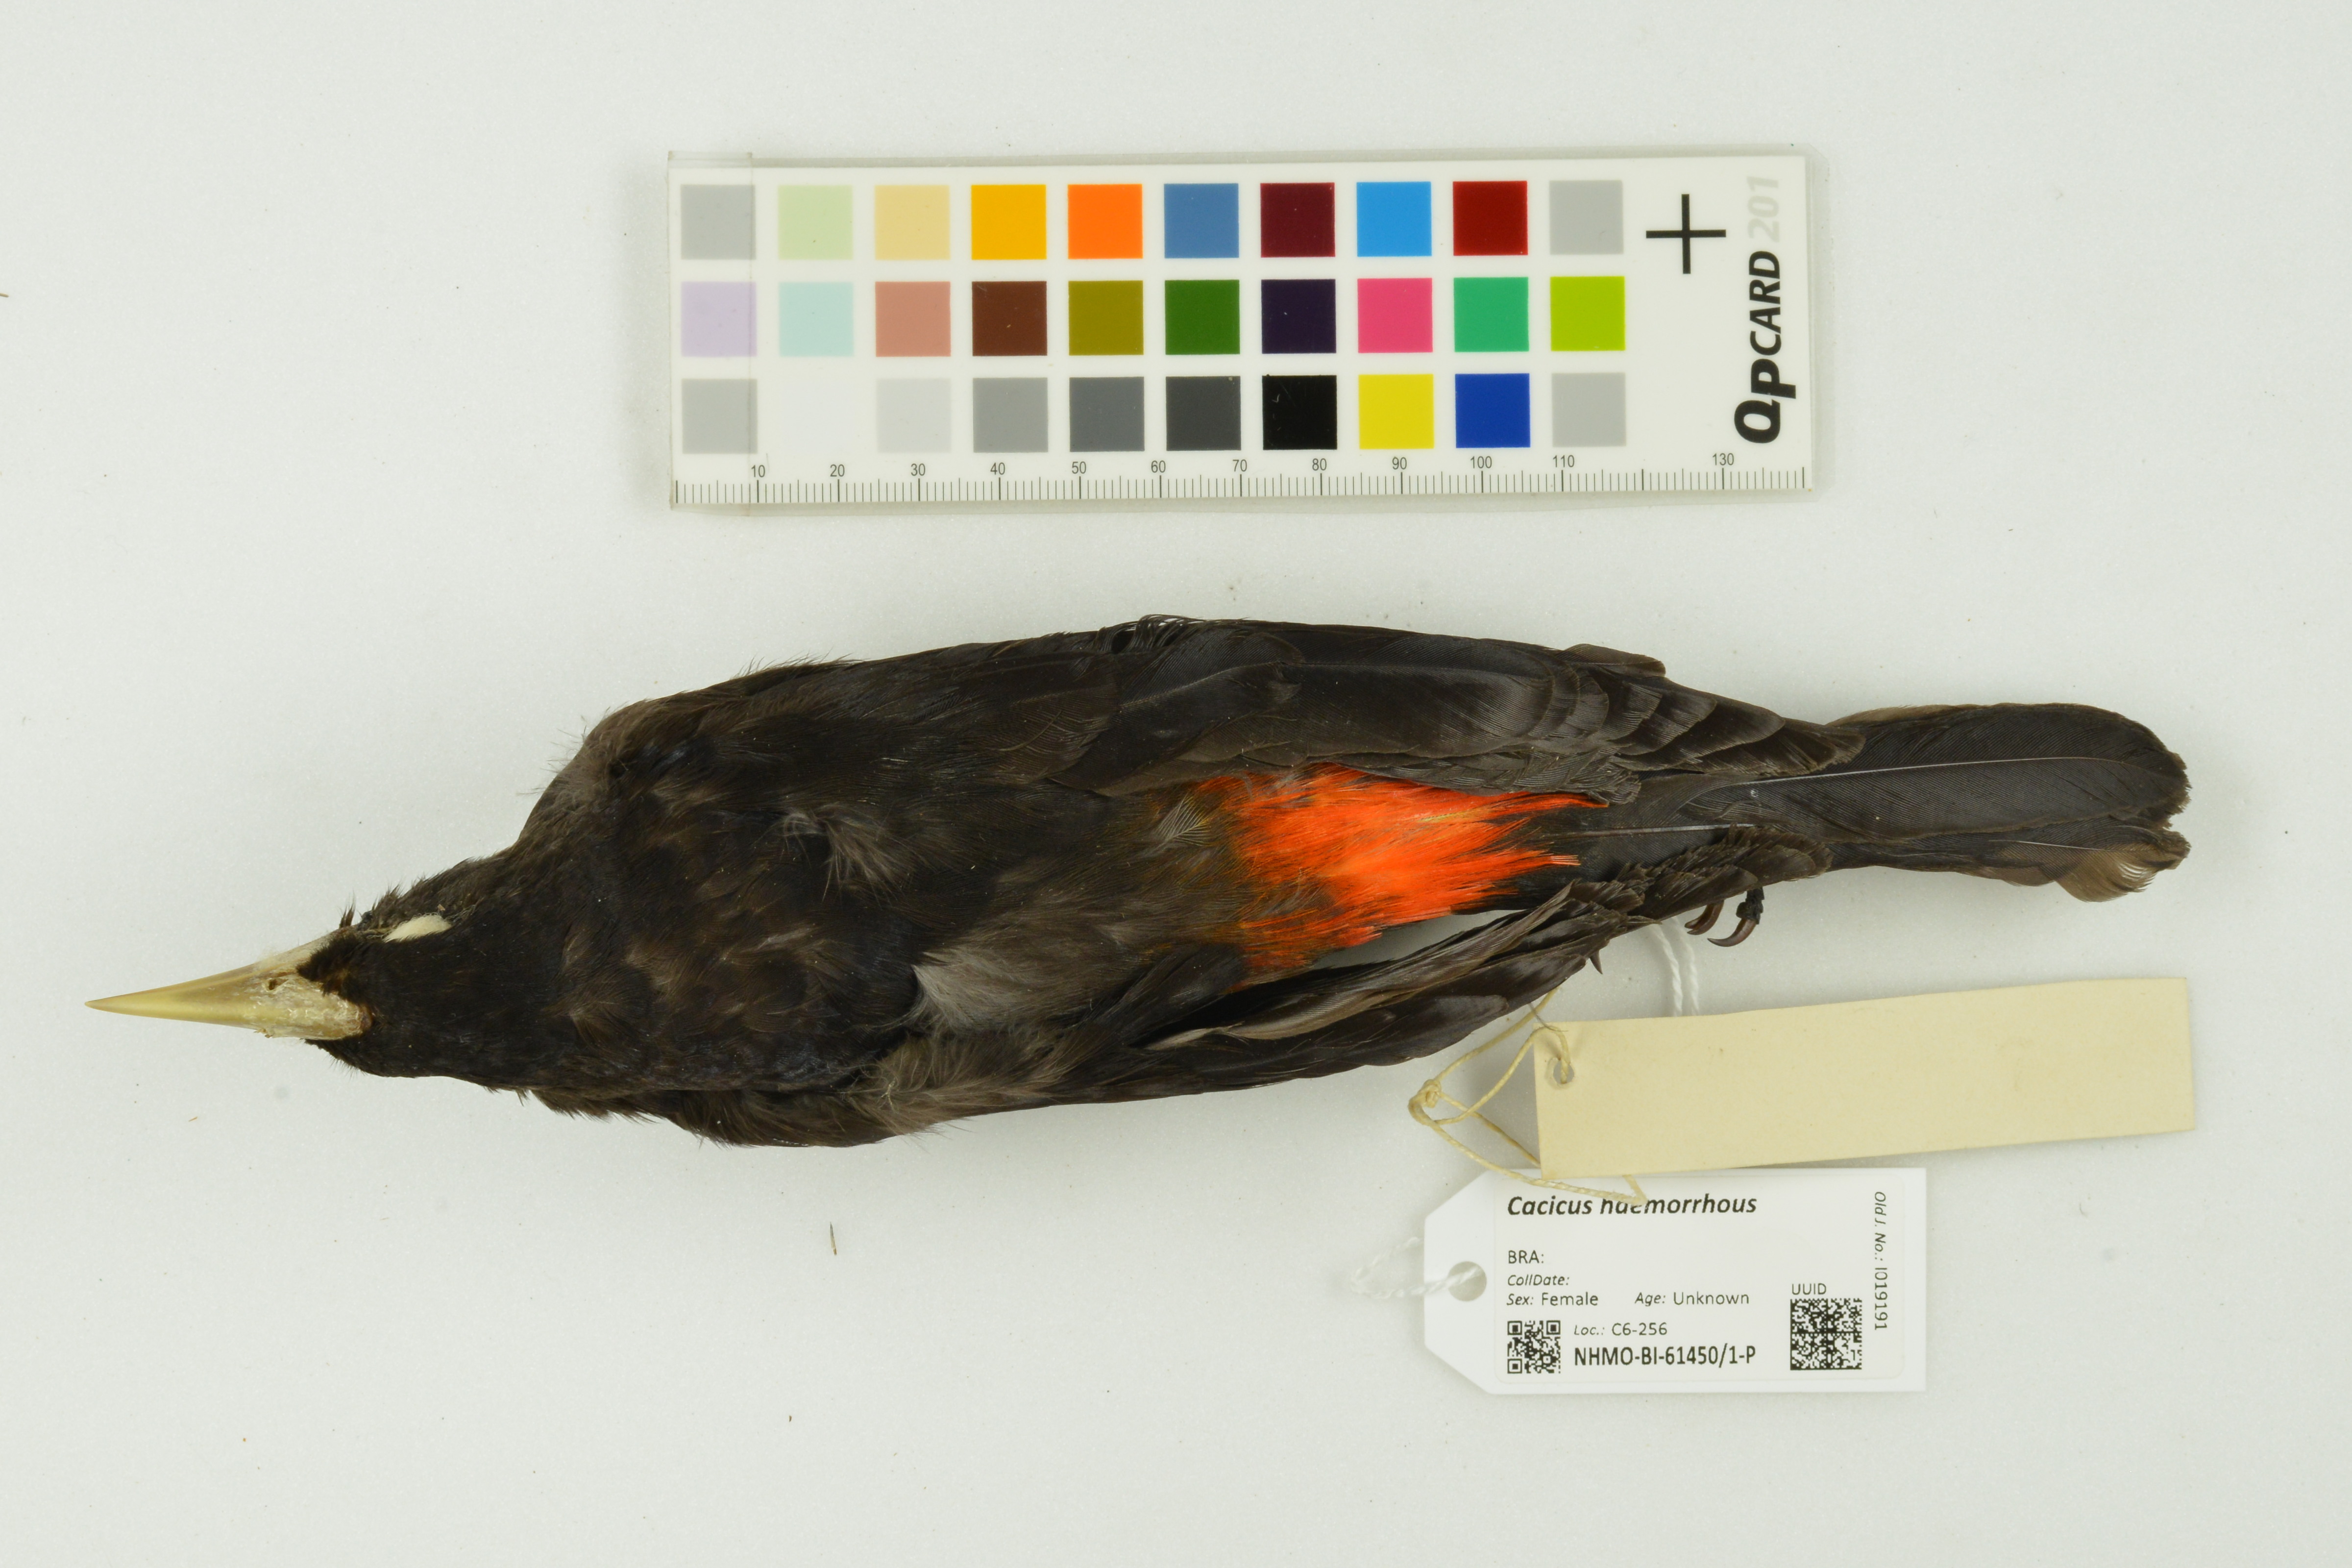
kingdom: Animalia
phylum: Chordata
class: Aves
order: Passeriformes
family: Icteridae
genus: Cacicus
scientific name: Cacicus haemorrhous
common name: Red-rumped cacique
